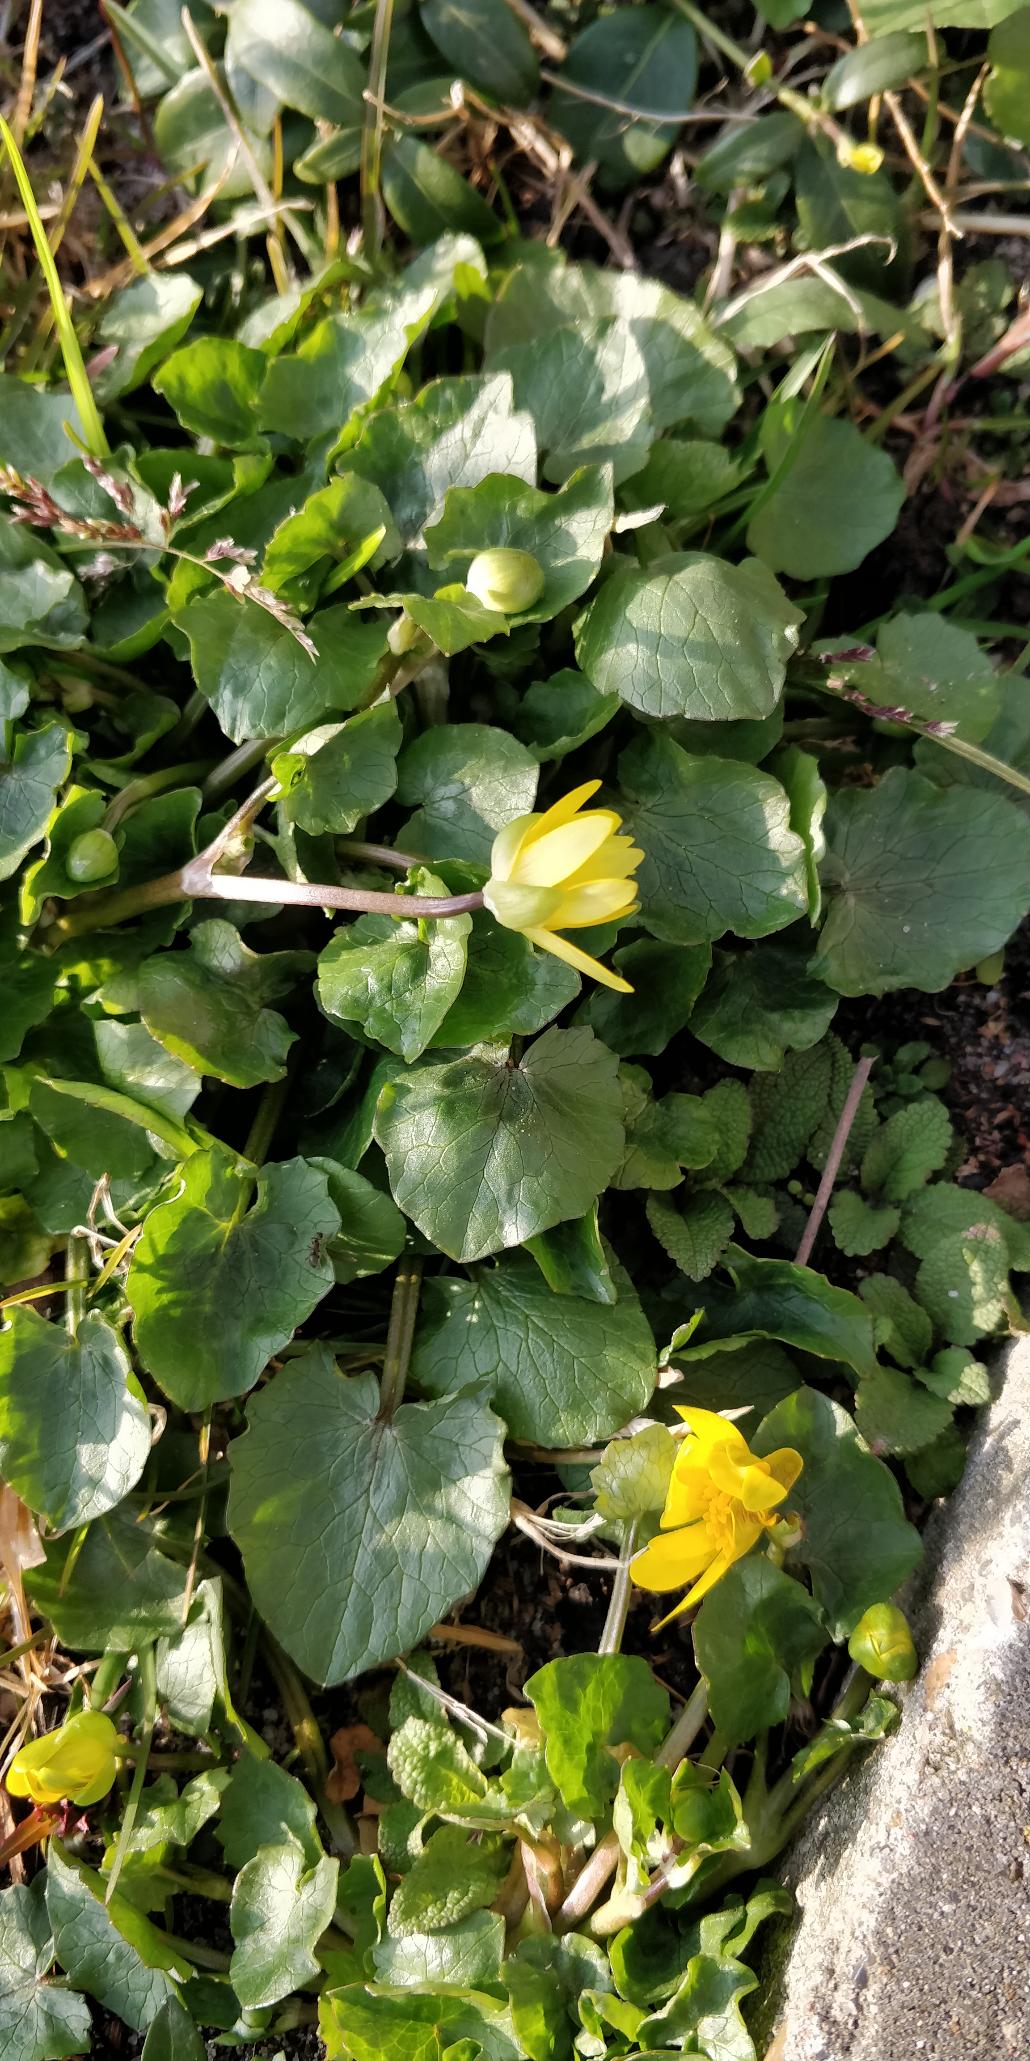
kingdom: Plantae
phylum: Tracheophyta
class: Magnoliopsida
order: Ranunculales
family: Ranunculaceae
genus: Ficaria
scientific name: Ficaria verna
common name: Vorterod
